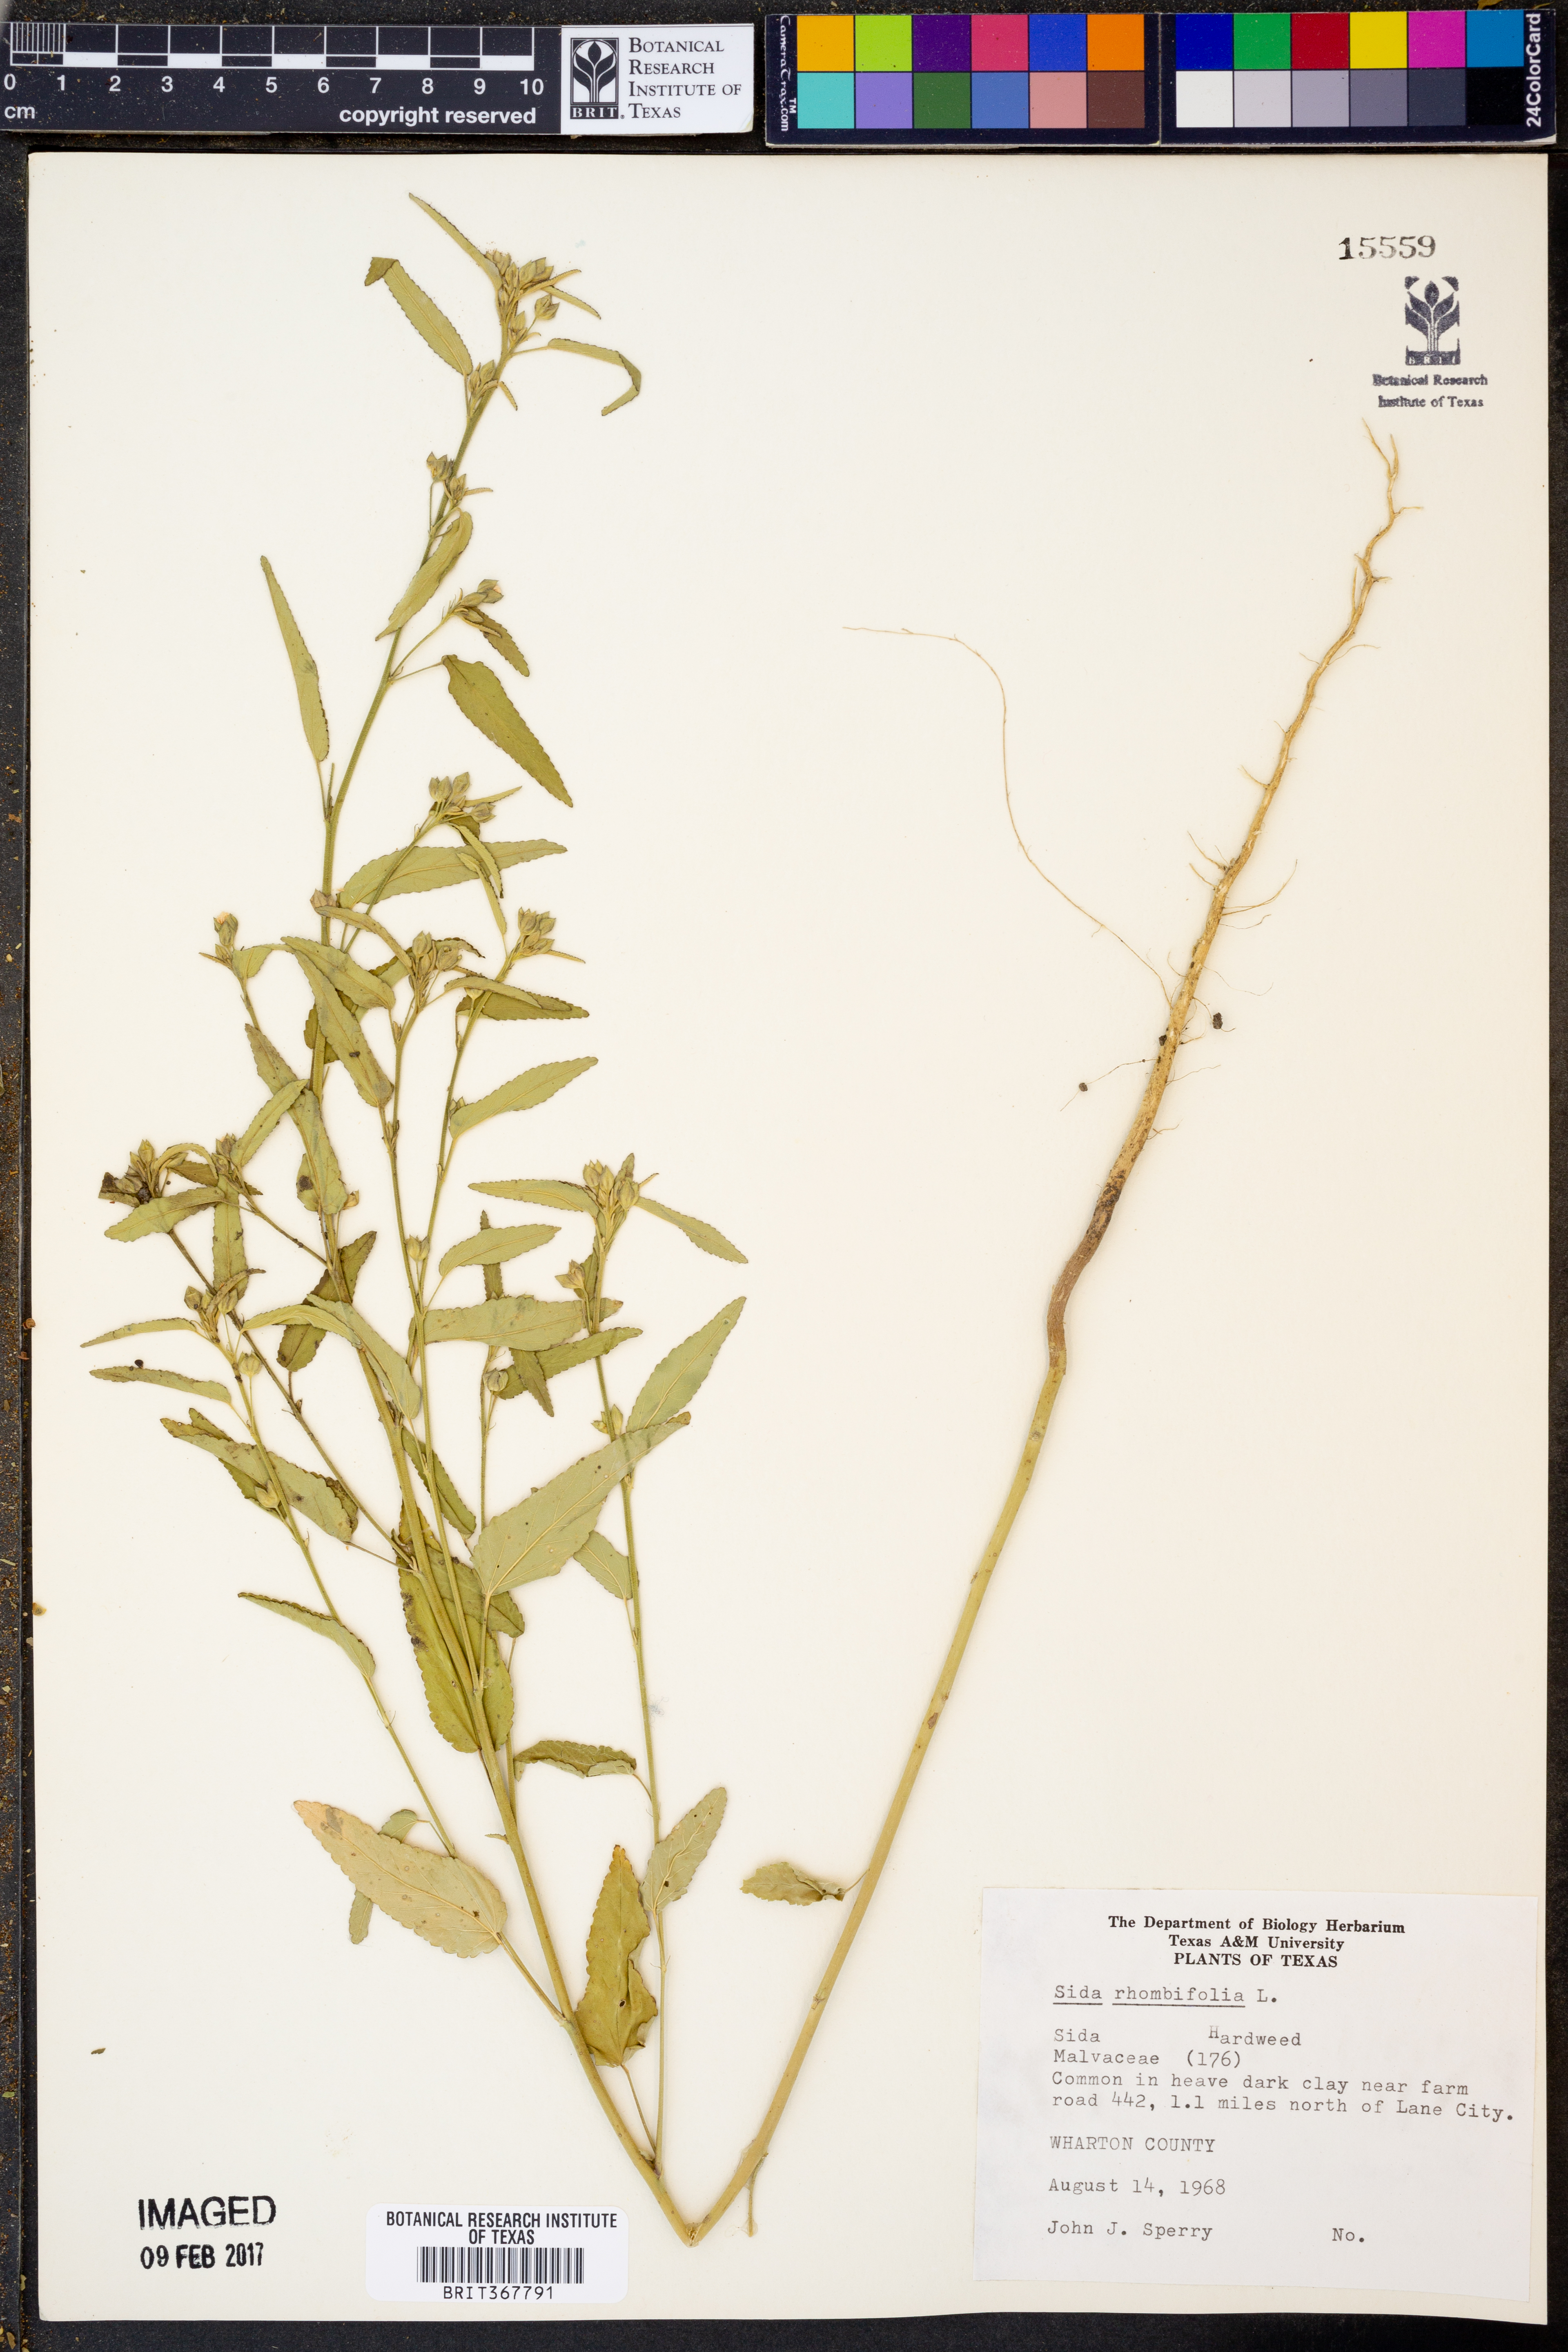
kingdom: Plantae
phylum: Tracheophyta
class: Magnoliopsida
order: Malvales
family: Malvaceae
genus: Sida
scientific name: Sida rhombifolia
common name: Queensland-hemp
